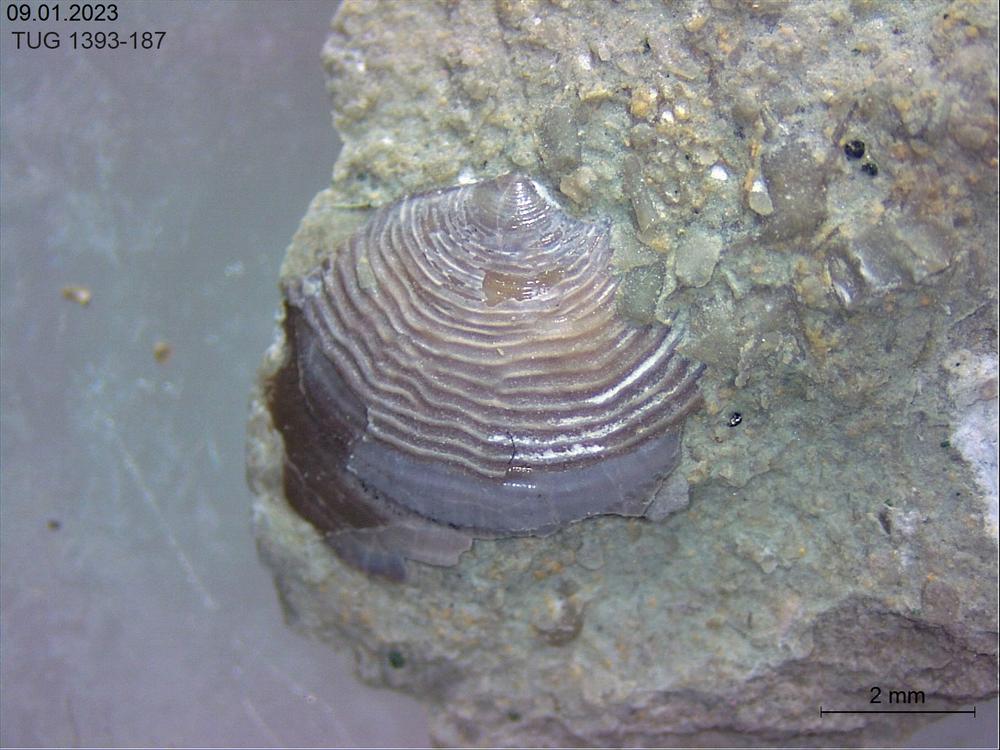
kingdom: Animalia
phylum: Brachiopoda
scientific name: Brachiopoda
